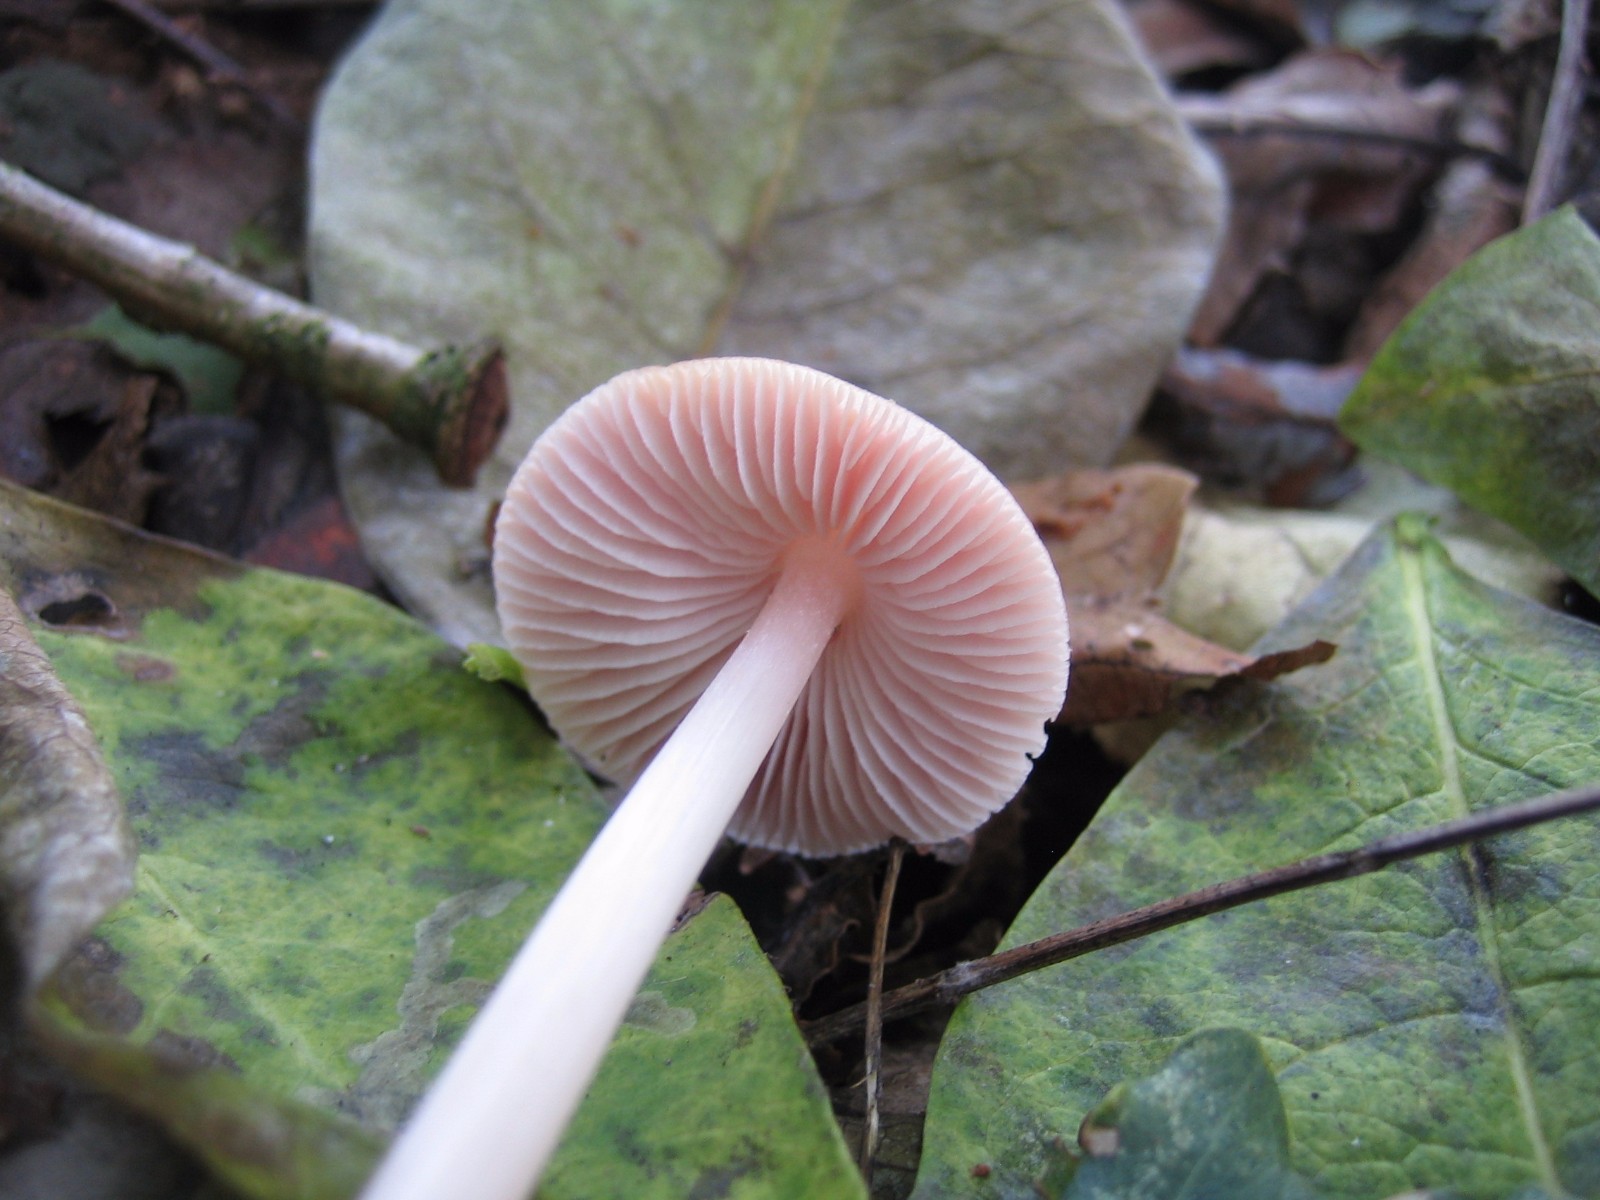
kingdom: Fungi
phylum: Basidiomycota
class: Agaricomycetes
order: Agaricales
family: Mycenaceae
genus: Mycena
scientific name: Mycena rosea
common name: rosa huesvamp
